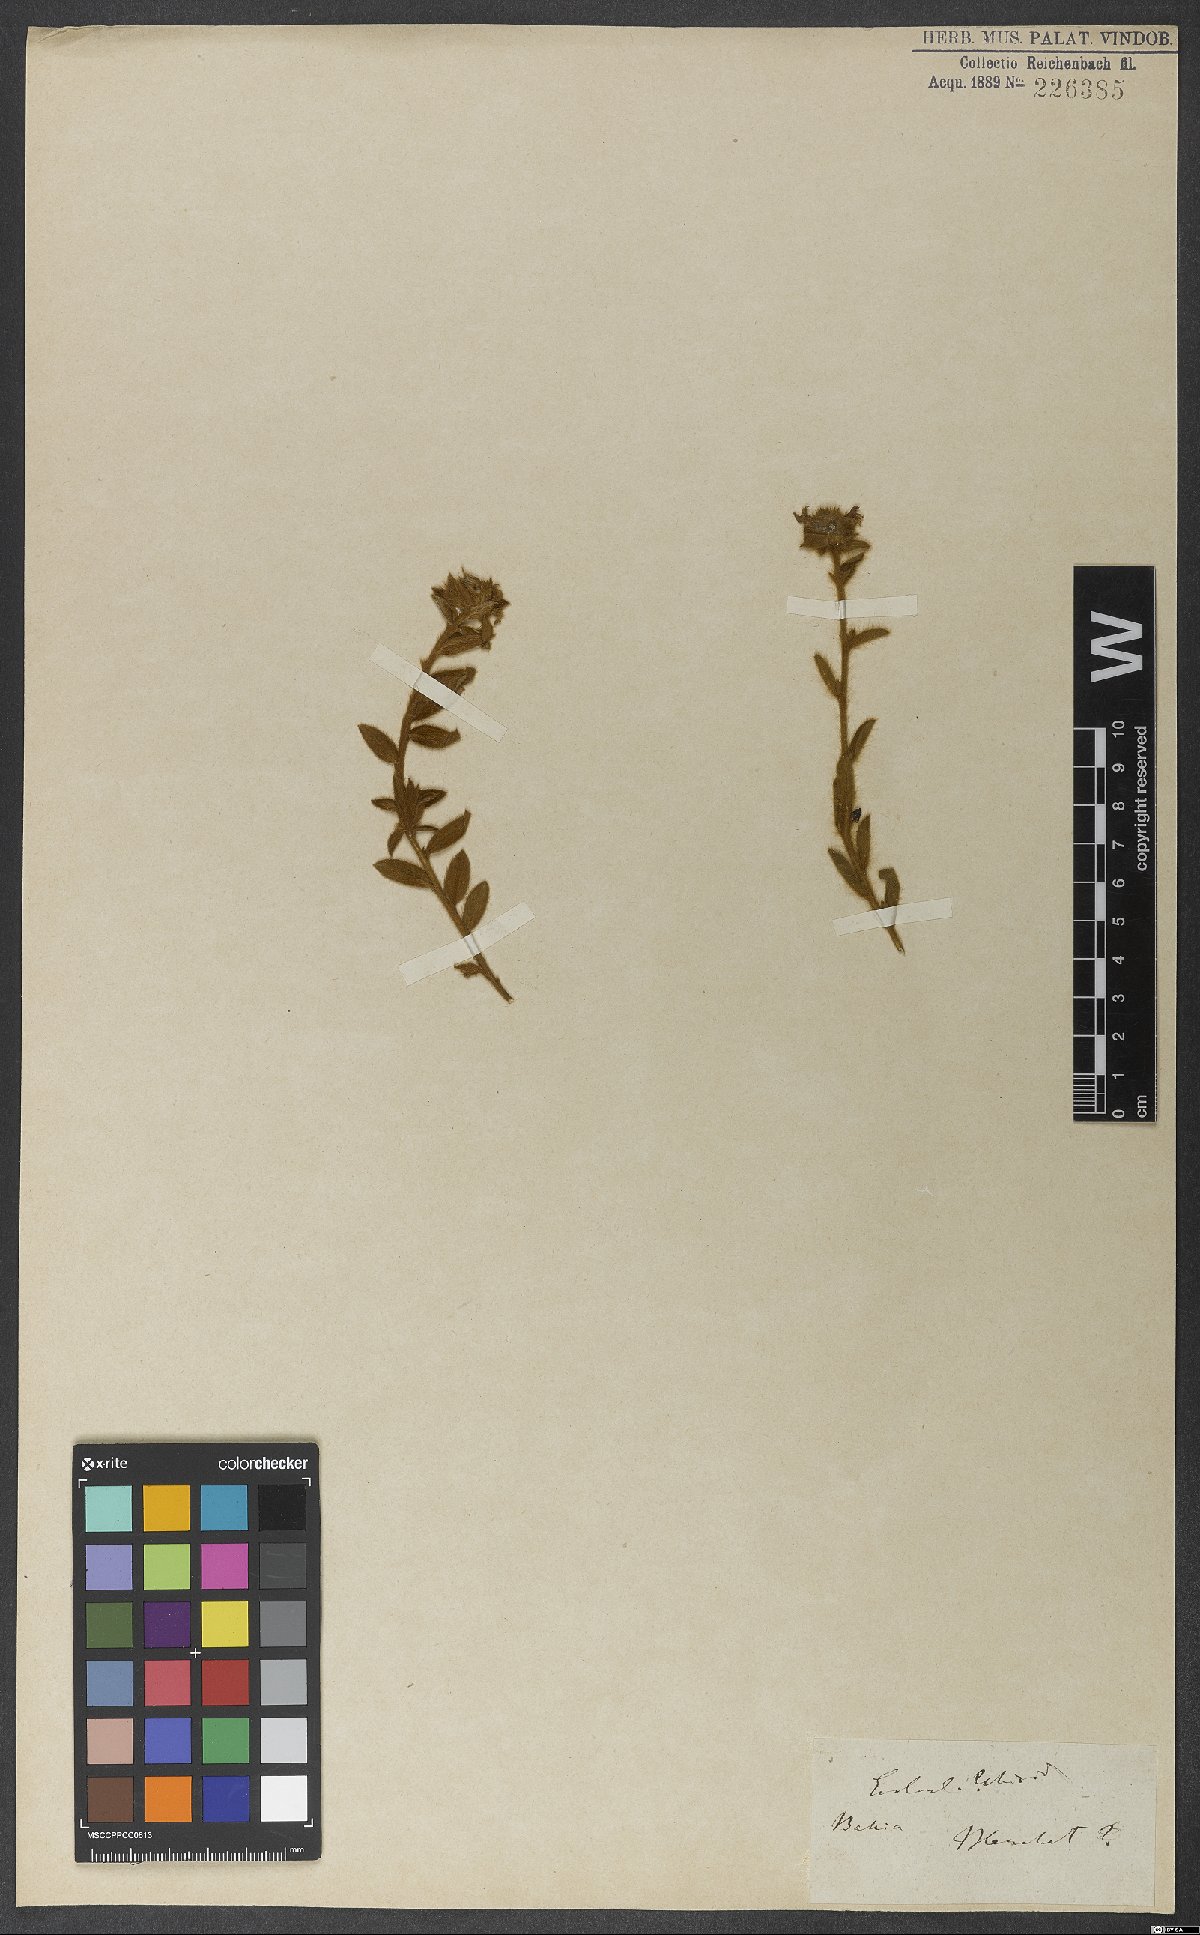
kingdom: Plantae
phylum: Tracheophyta
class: Magnoliopsida
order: Solanales
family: Convolvulaceae
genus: Evolvulus
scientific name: Evolvulus glomeratus
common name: Brazilian dwarf morning-glory
